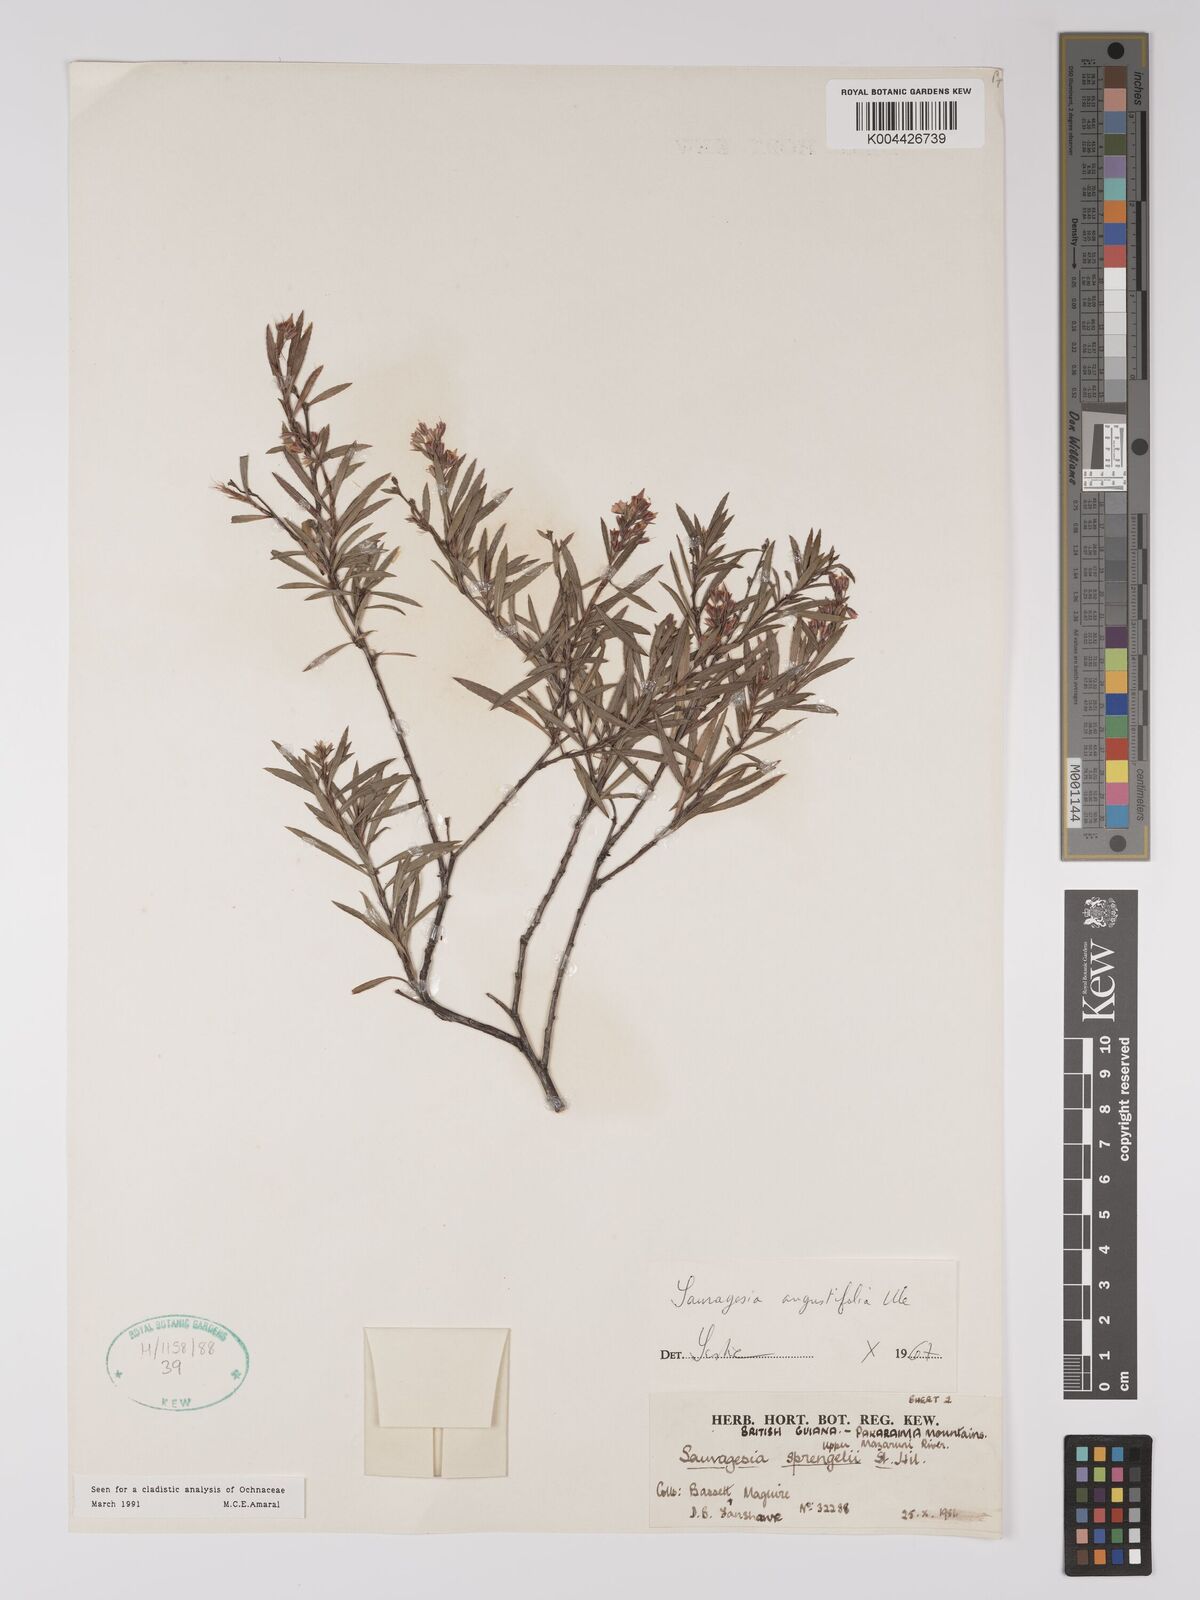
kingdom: Plantae
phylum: Tracheophyta
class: Magnoliopsida
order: Malpighiales
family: Ochnaceae
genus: Sauvagesia
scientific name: Sauvagesia angustifolia
